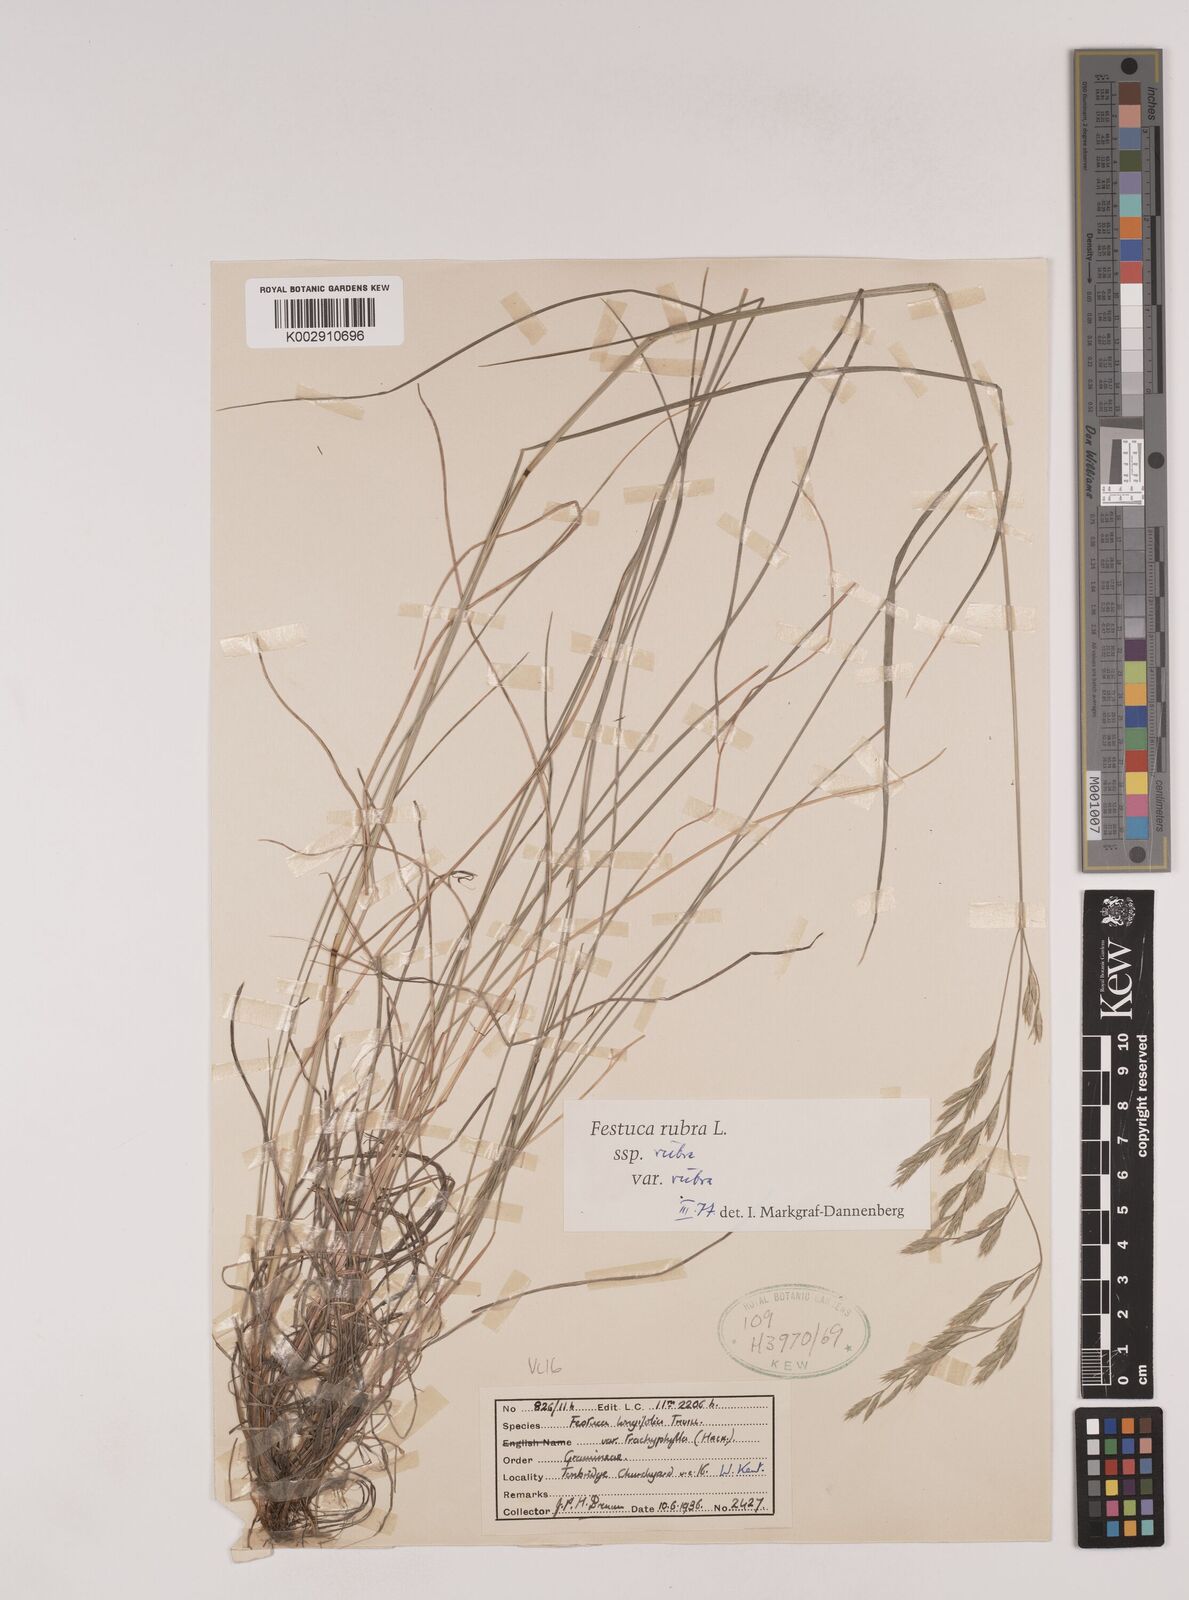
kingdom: Plantae
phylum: Tracheophyta
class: Liliopsida
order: Poales
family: Poaceae
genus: Festuca
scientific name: Festuca rubra
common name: Red fescue
